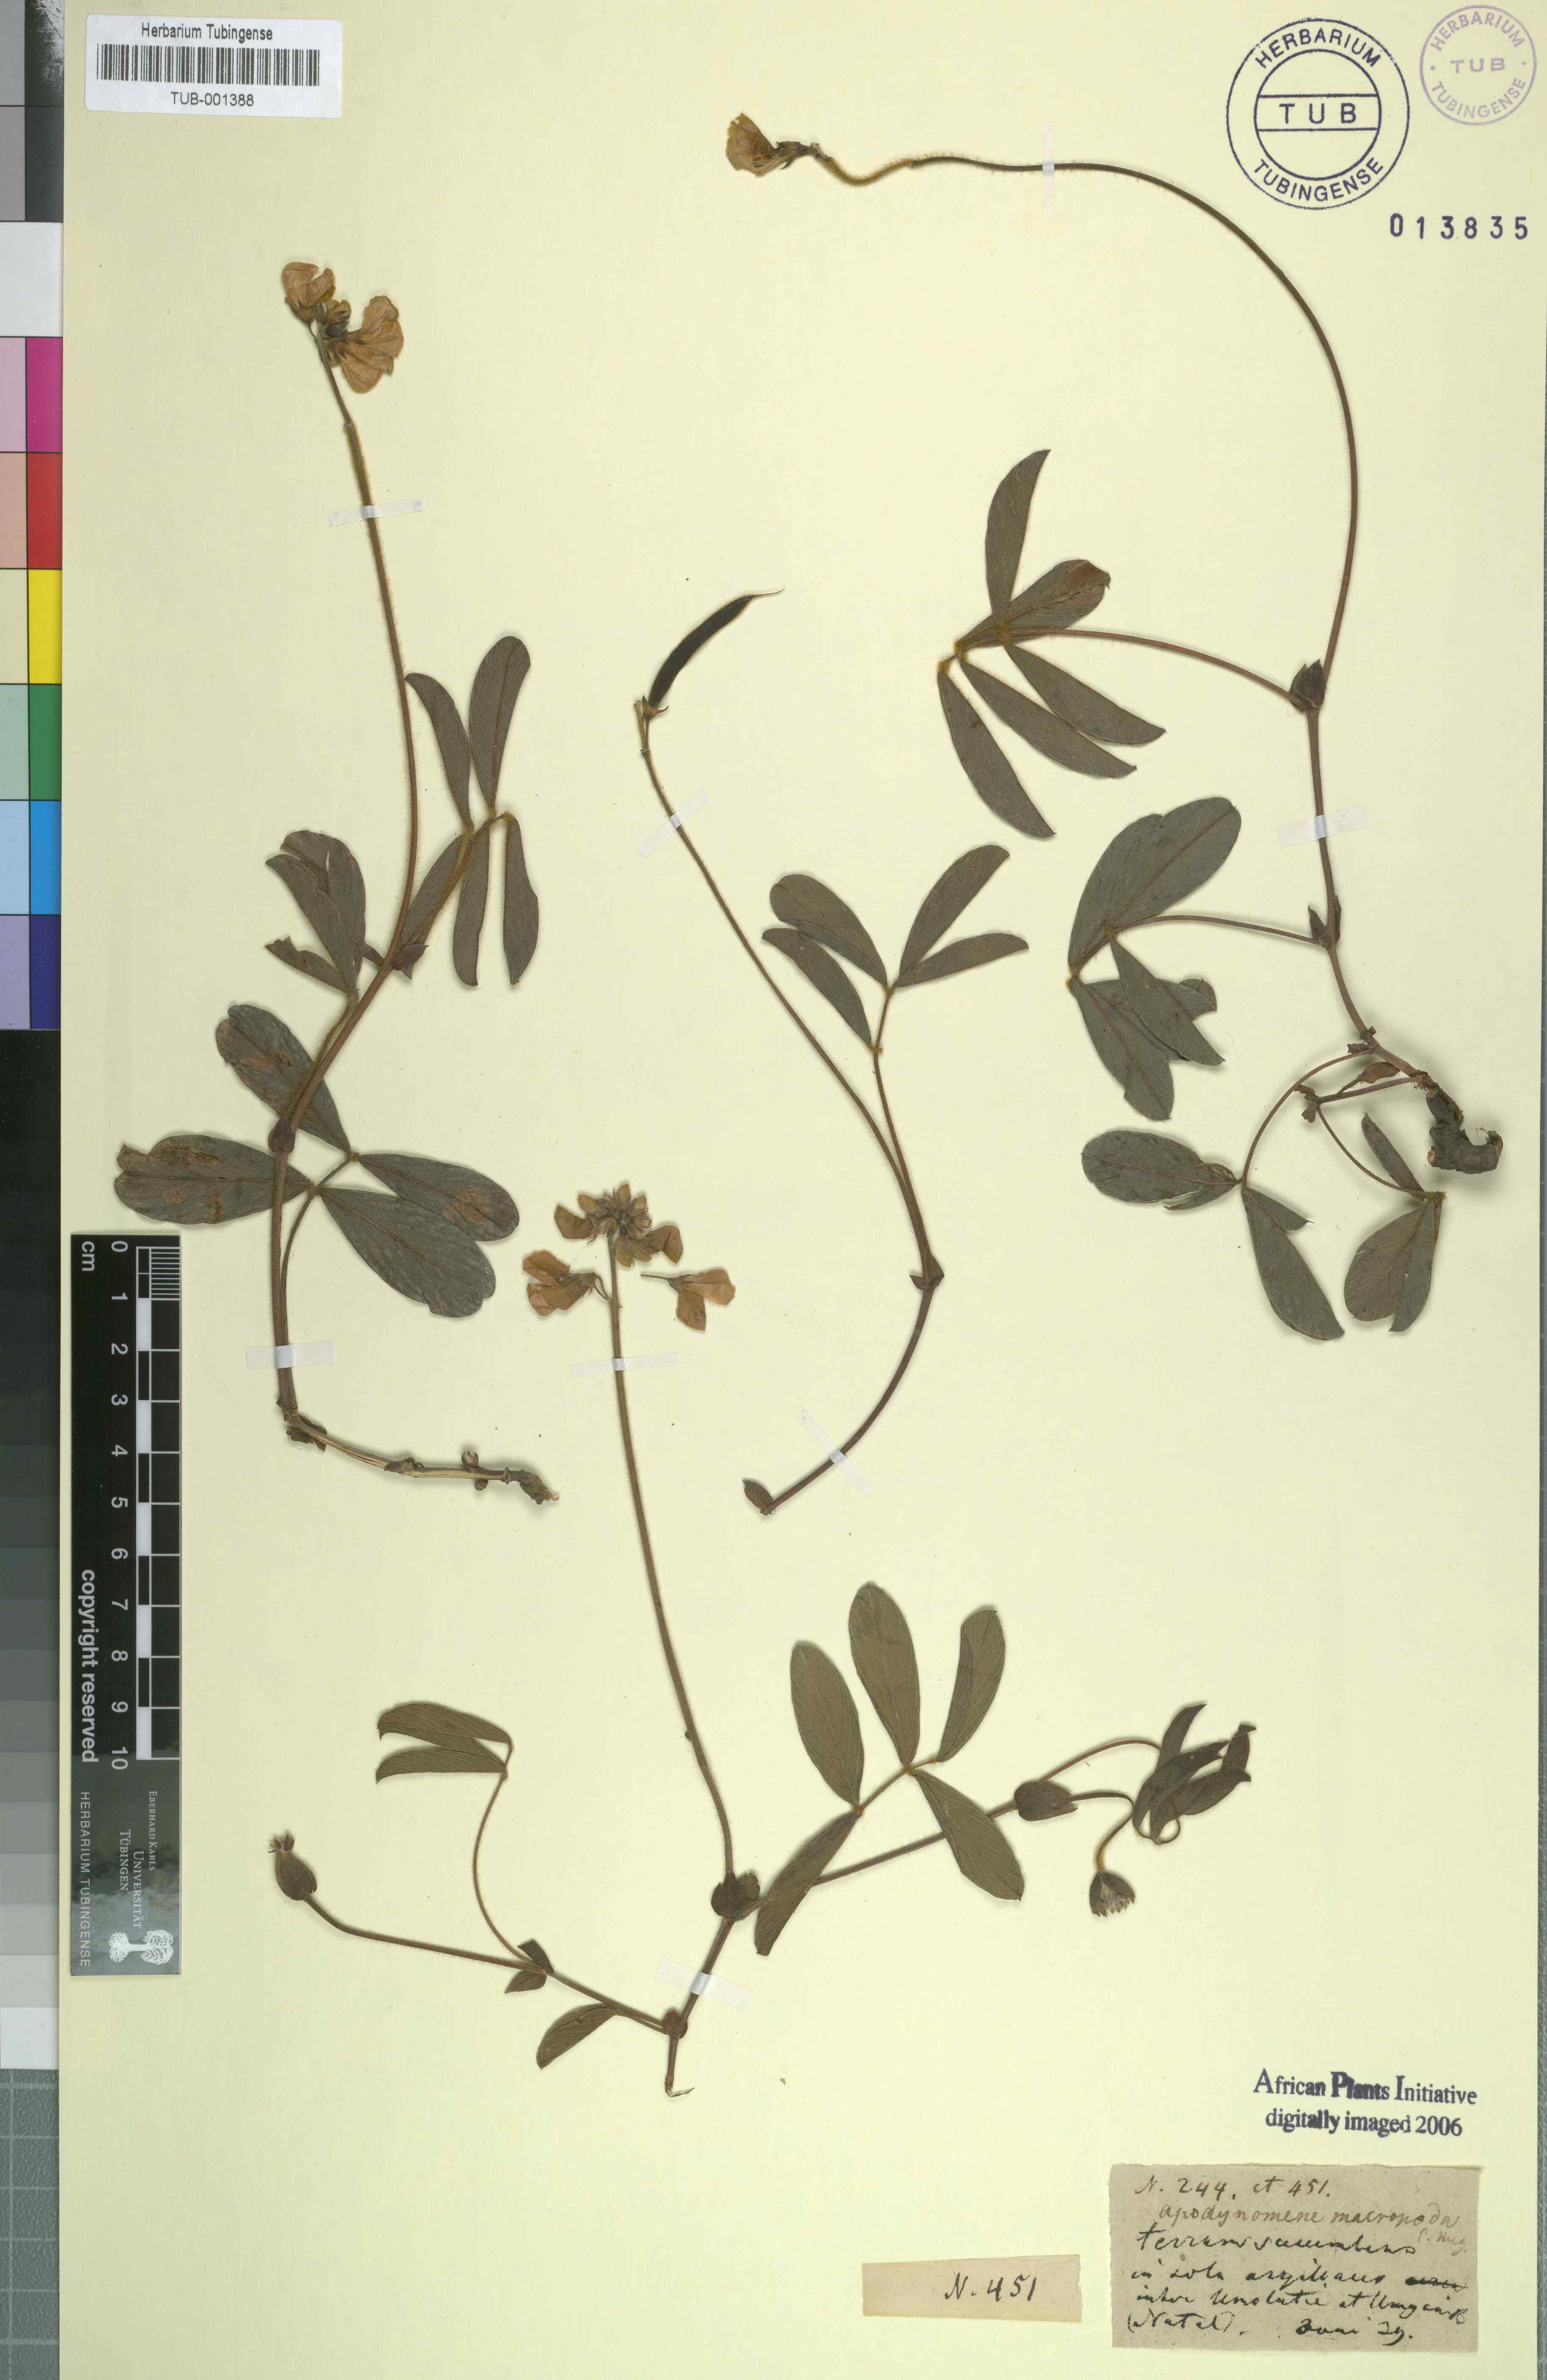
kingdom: Plantae
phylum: Tracheophyta
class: Magnoliopsida
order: Fabales
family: Fabaceae
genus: Tephrosia
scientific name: Tephrosia macropoda
